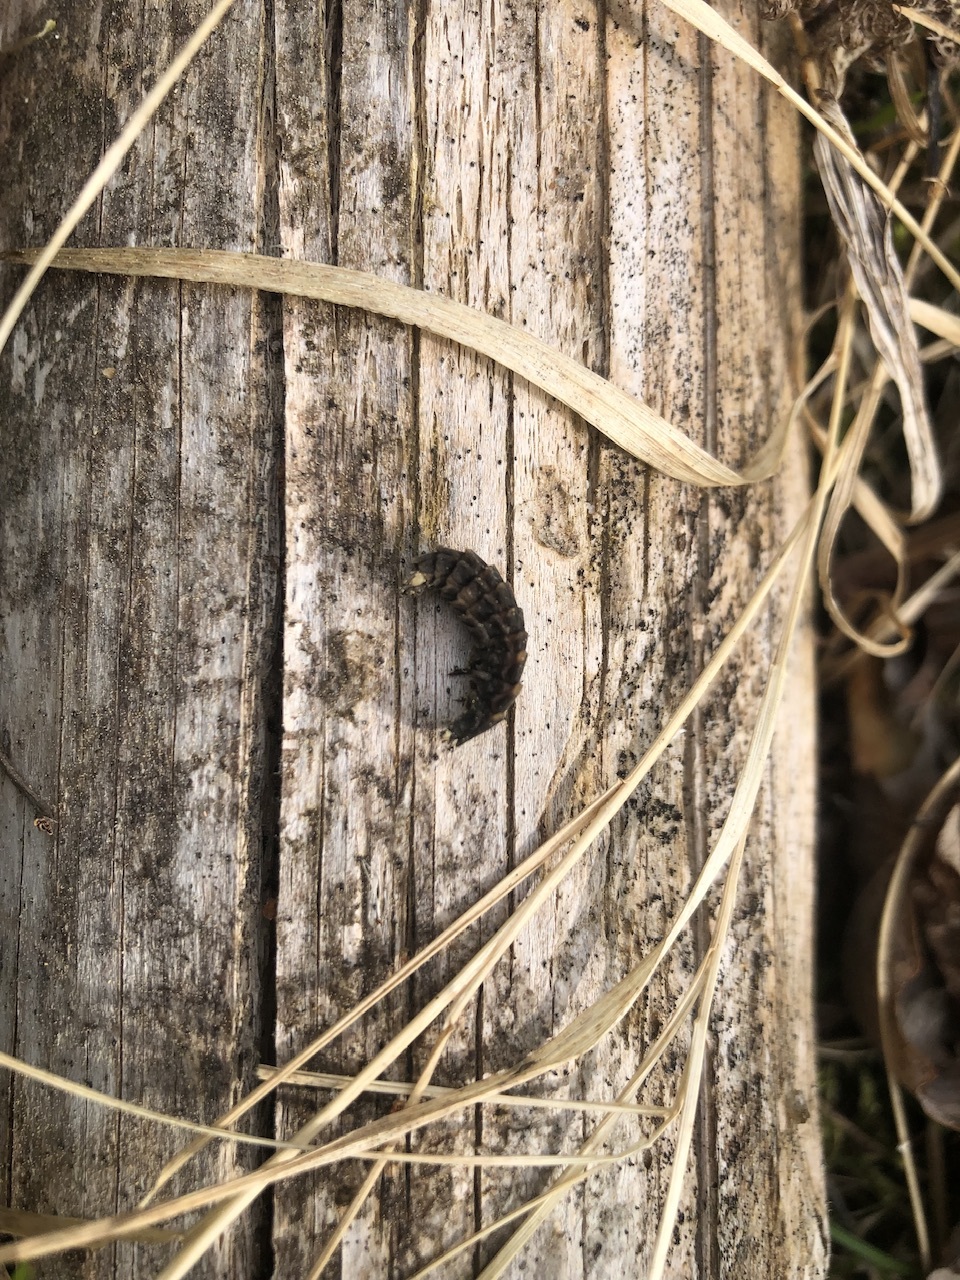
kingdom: Animalia
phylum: Arthropoda
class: Insecta
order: Coleoptera
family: Lampyridae
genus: Lampyris
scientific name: Lampyris noctiluca
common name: Glow-worm
